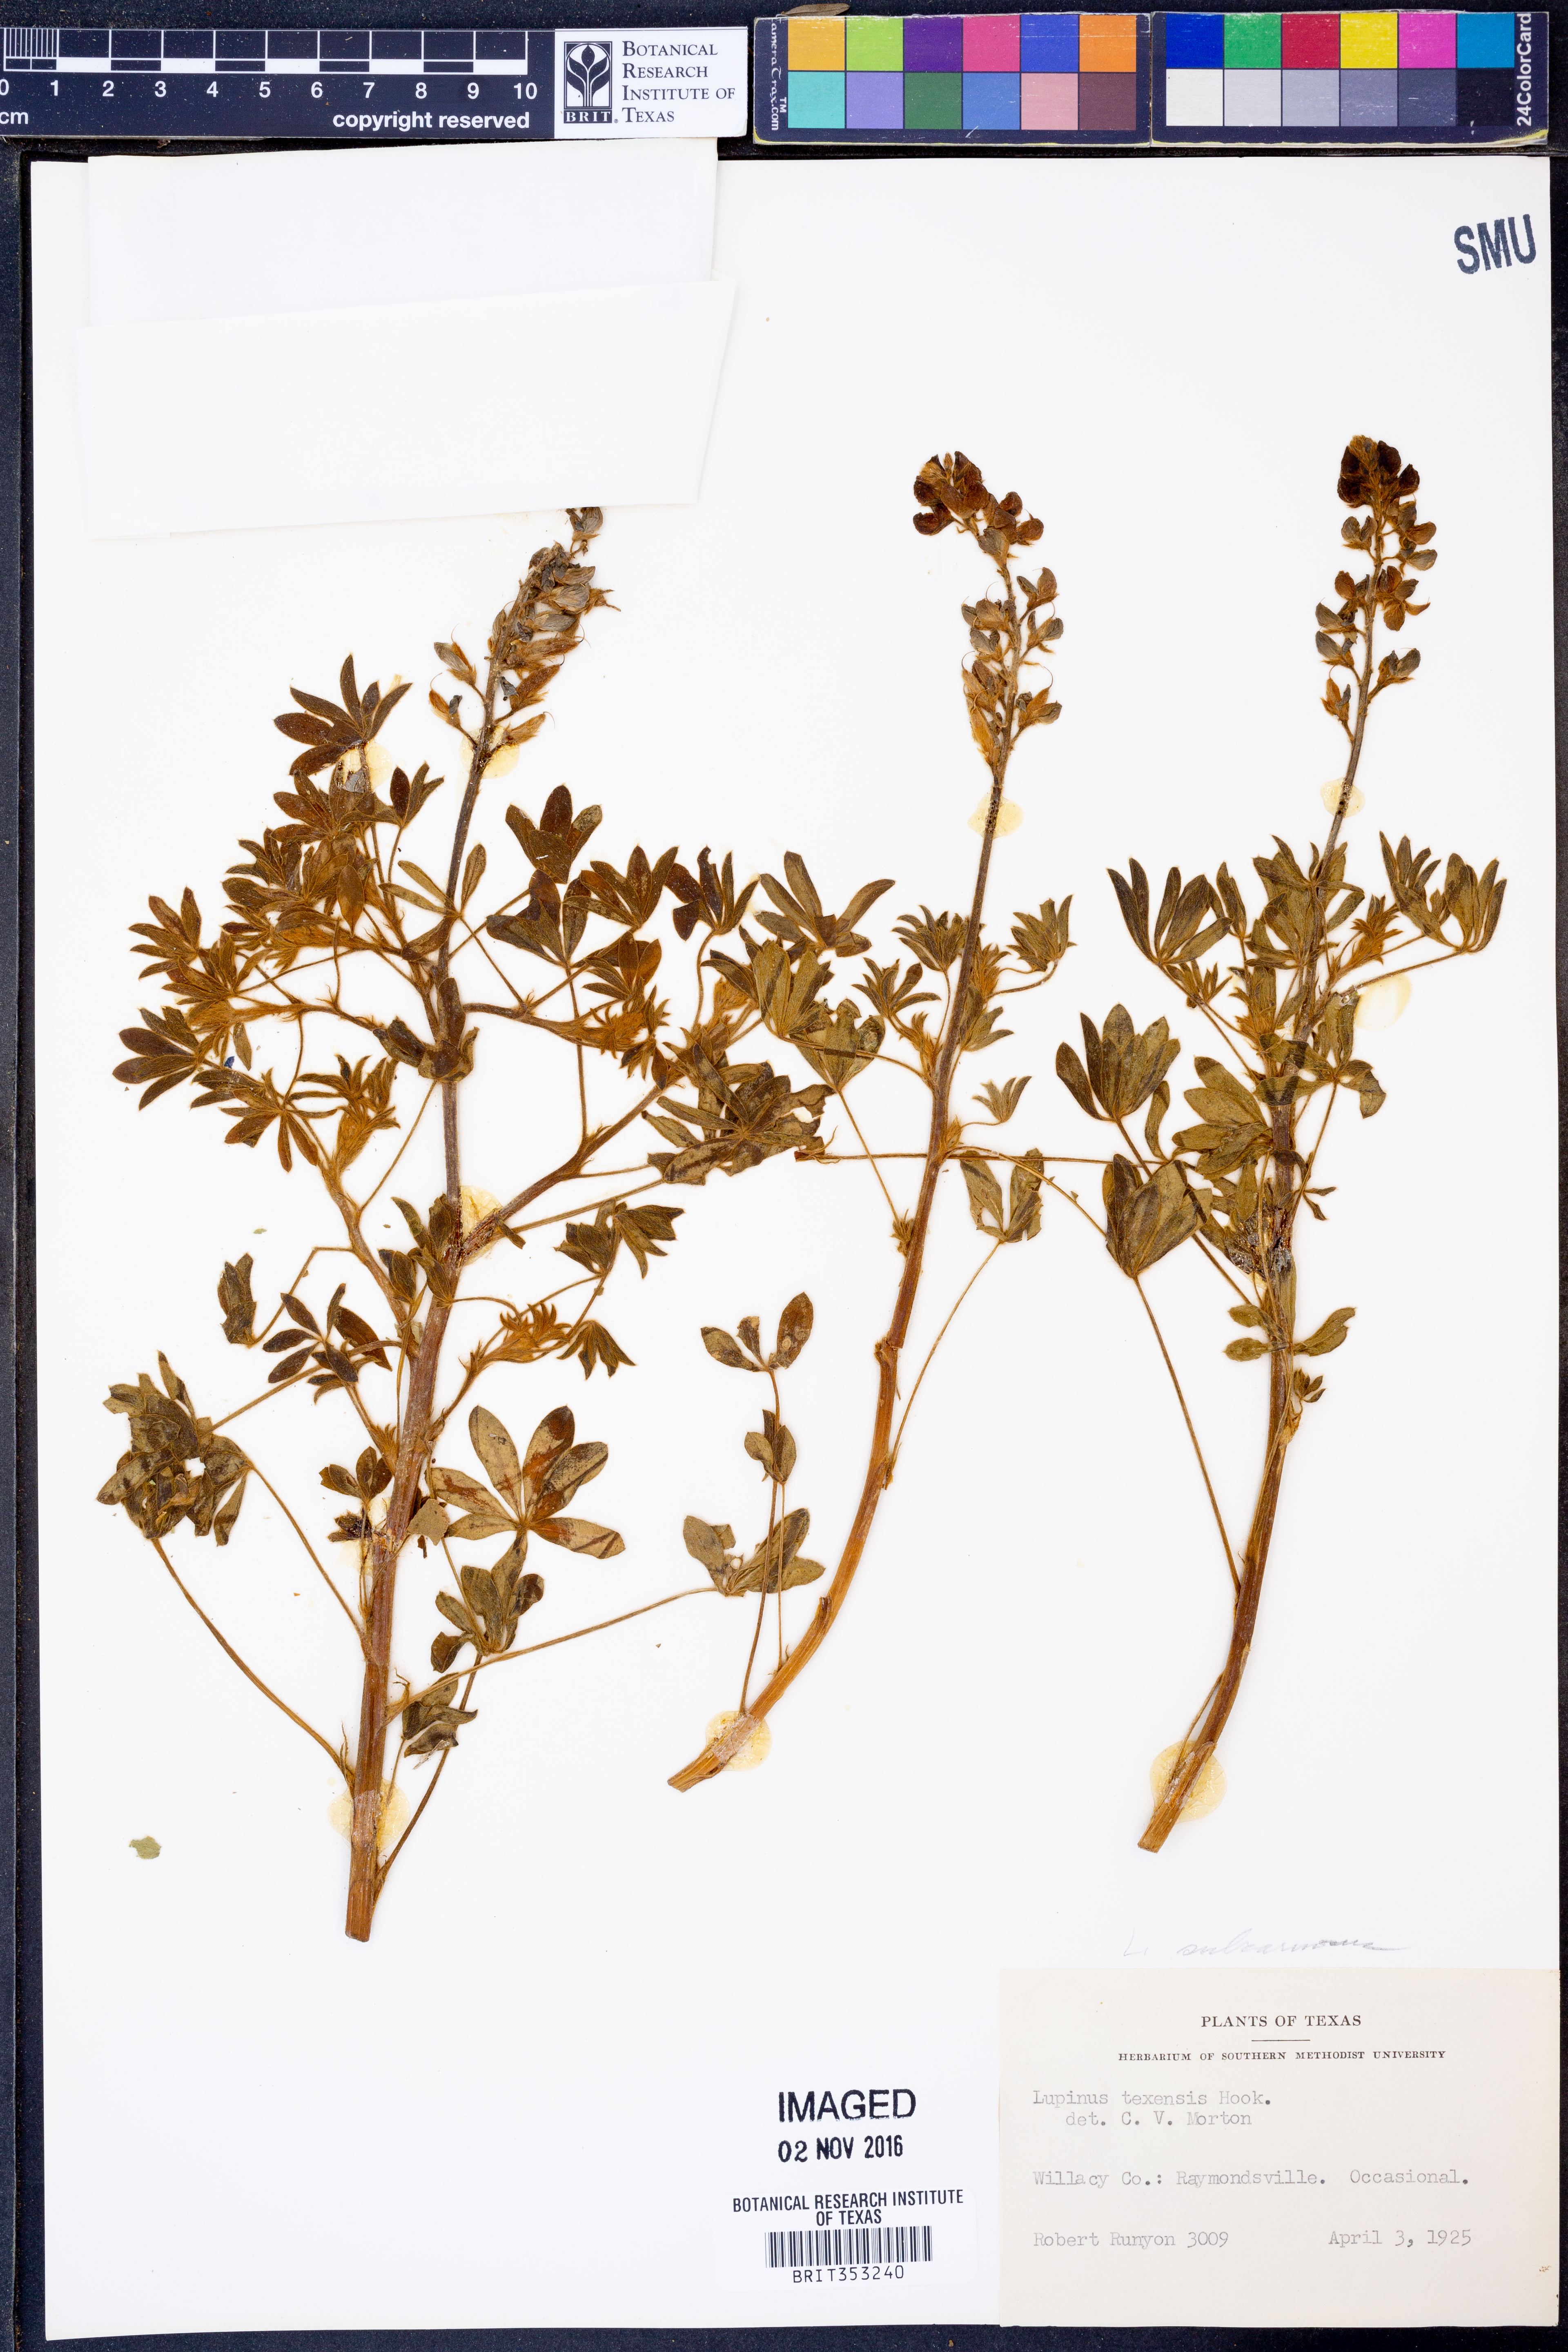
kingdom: Plantae
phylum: Tracheophyta
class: Magnoliopsida
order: Fabales
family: Fabaceae
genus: Lupinus
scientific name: Lupinus texensis
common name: Texas bluebonnet
